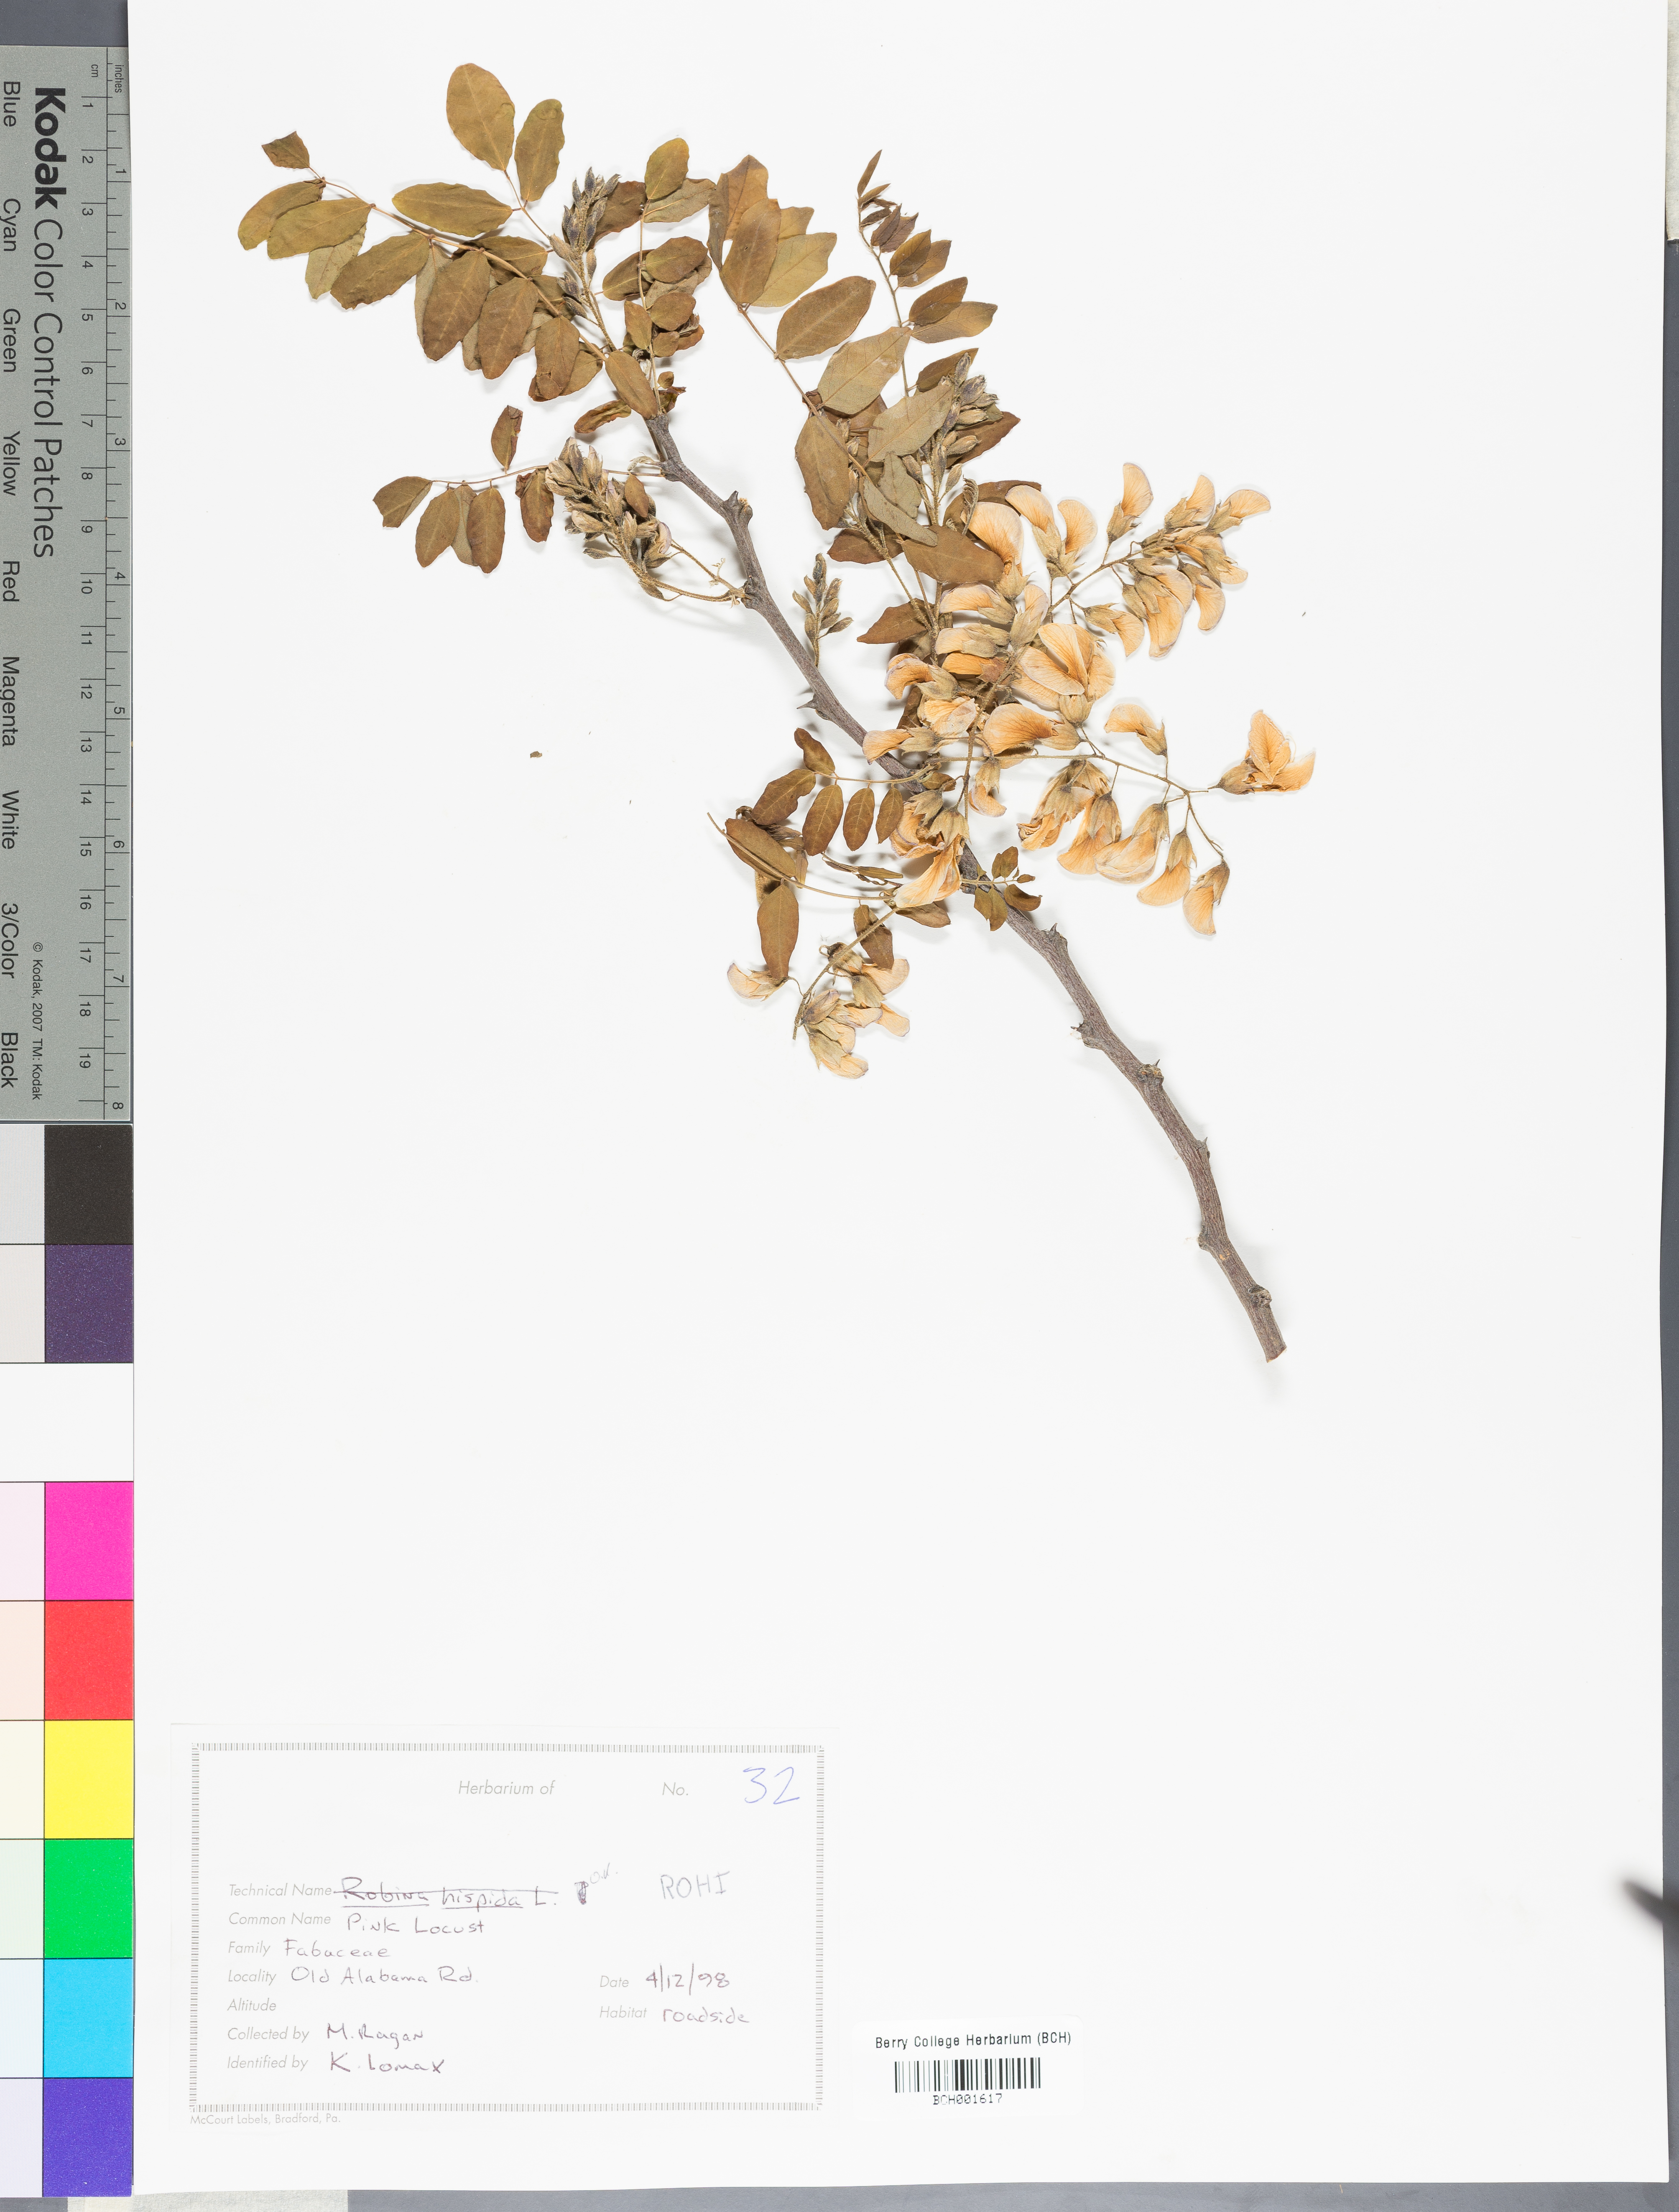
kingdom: Plantae
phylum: Tracheophyta
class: Magnoliopsida
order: Fabales
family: Fabaceae
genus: Robinia
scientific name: Robinia hispida
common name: Bristly locust
